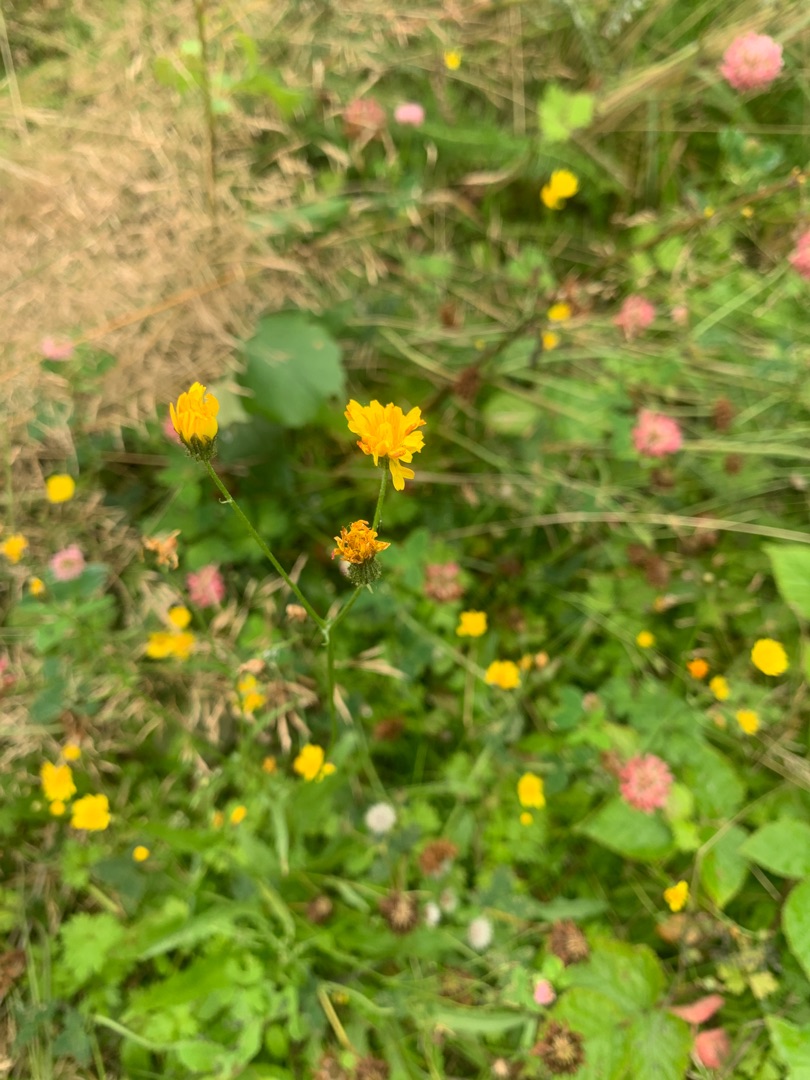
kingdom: Plantae
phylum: Tracheophyta
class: Magnoliopsida
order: Asterales
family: Asteraceae
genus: Crepis
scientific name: Crepis
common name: Høgeskægslægten
